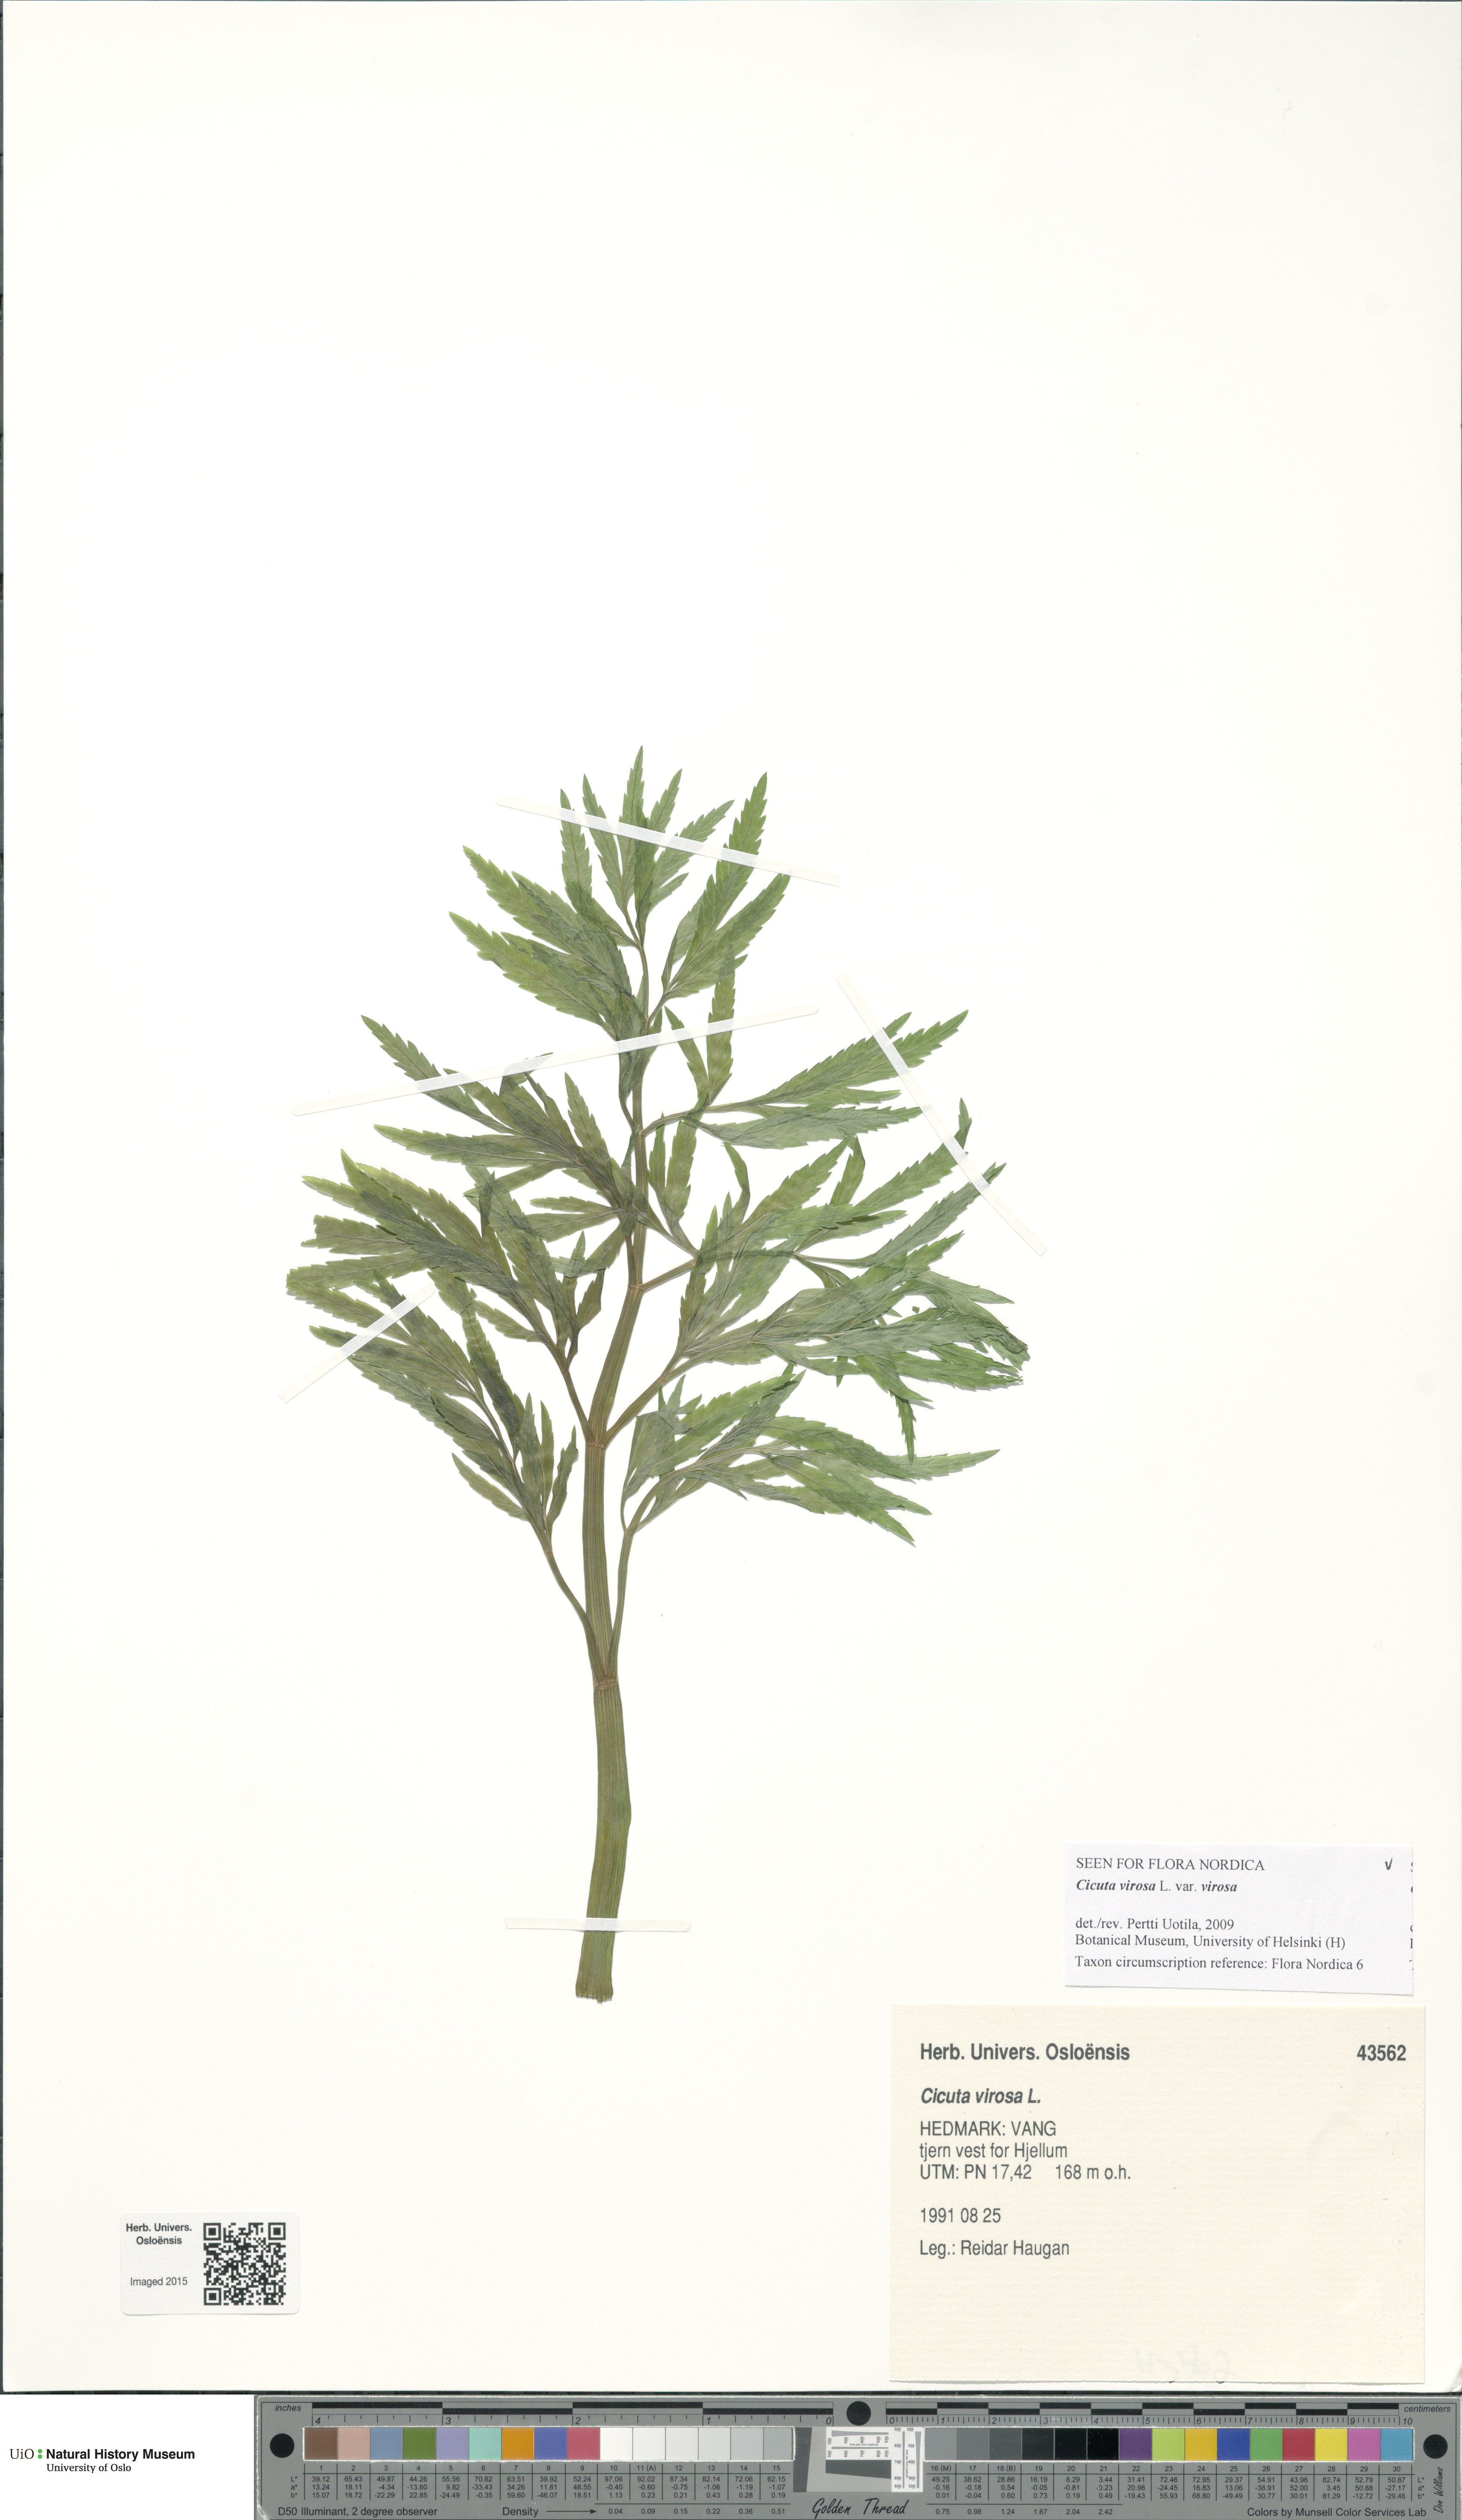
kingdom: Plantae
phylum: Tracheophyta
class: Magnoliopsida
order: Apiales
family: Apiaceae
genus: Cicuta
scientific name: Cicuta virosa
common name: Cowbane
